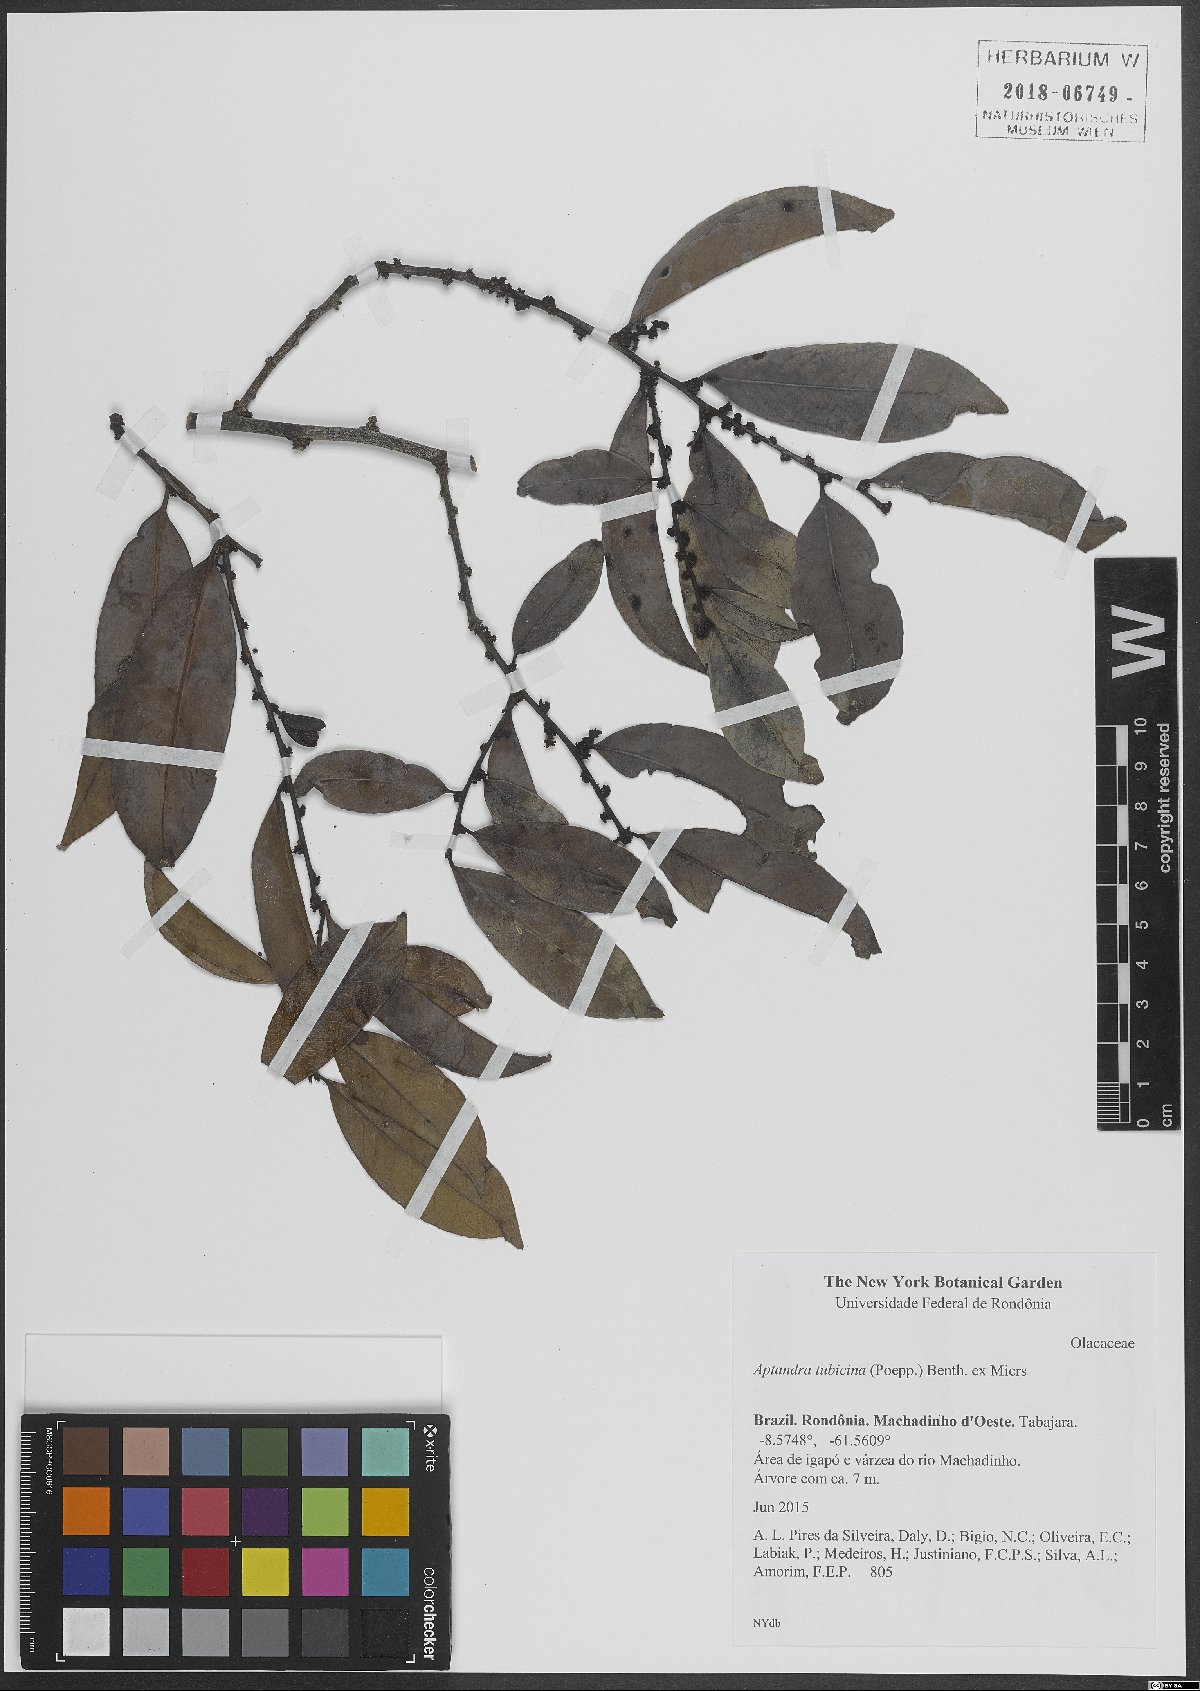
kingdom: Plantae
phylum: Tracheophyta
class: Magnoliopsida
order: Santalales
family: Aptandraceae
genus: Aptandra
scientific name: Aptandra tubicina
